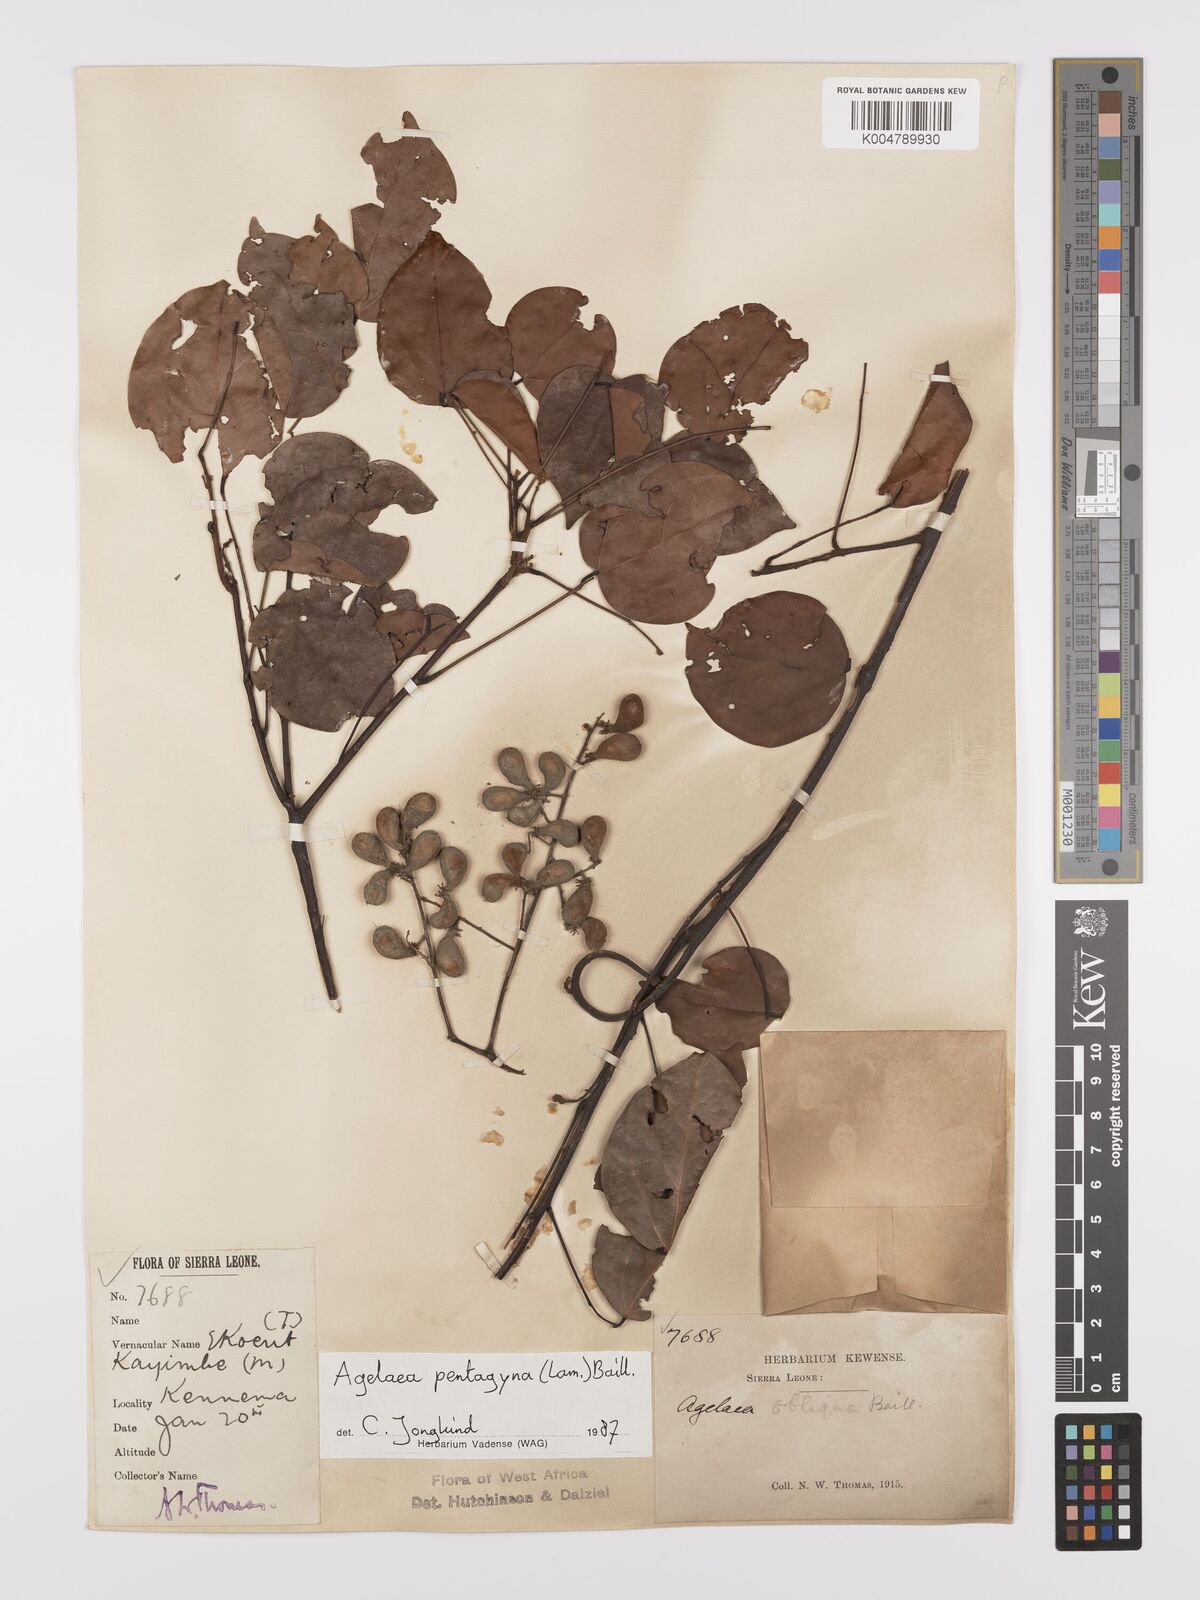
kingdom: Plantae
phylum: Tracheophyta
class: Magnoliopsida
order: Oxalidales
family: Connaraceae
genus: Agelaea
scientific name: Agelaea pentagyna
